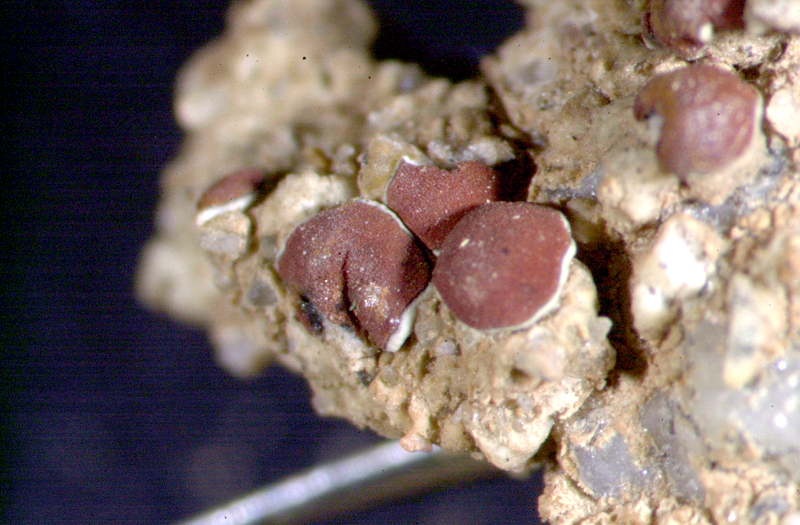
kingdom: Fungi
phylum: Ascomycota
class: Lecanoromycetes
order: Teloschistales
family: Teloschistaceae
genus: Caloplaca
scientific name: Caloplaca
